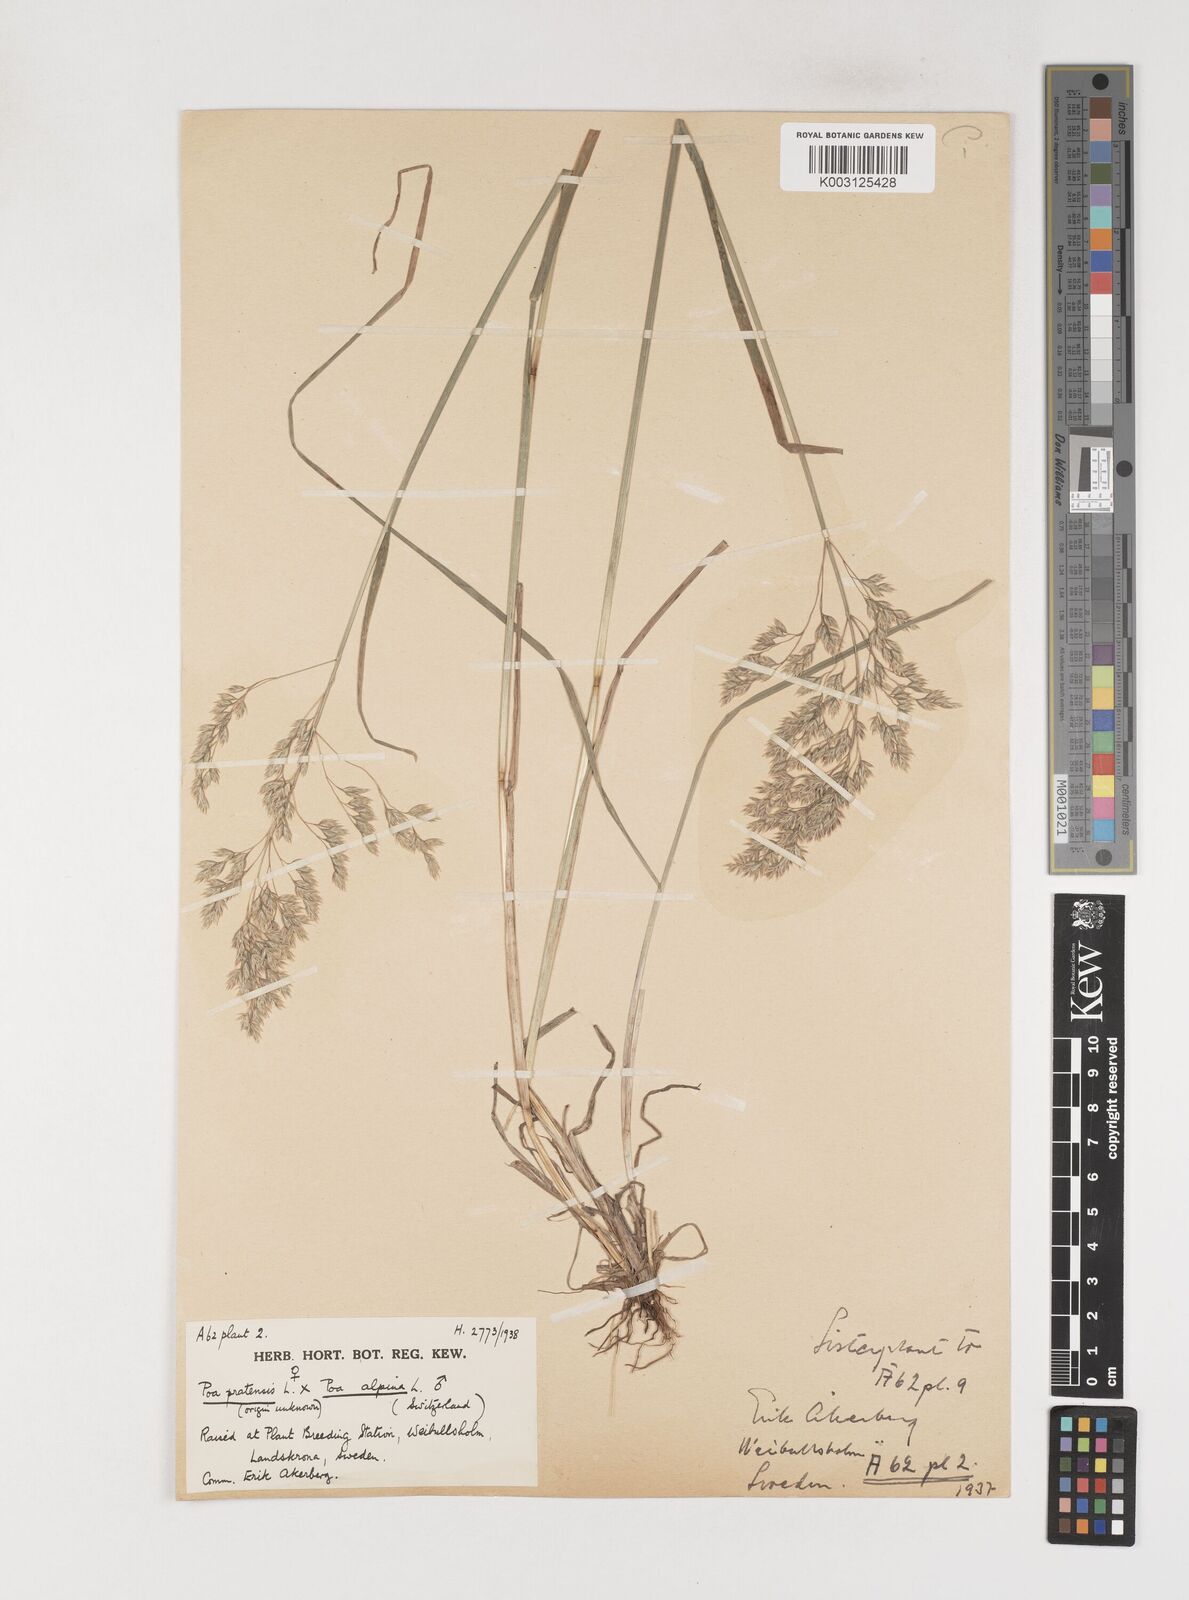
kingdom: Plantae
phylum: Tracheophyta
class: Liliopsida
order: Poales
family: Poaceae
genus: Poa
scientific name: Poa
